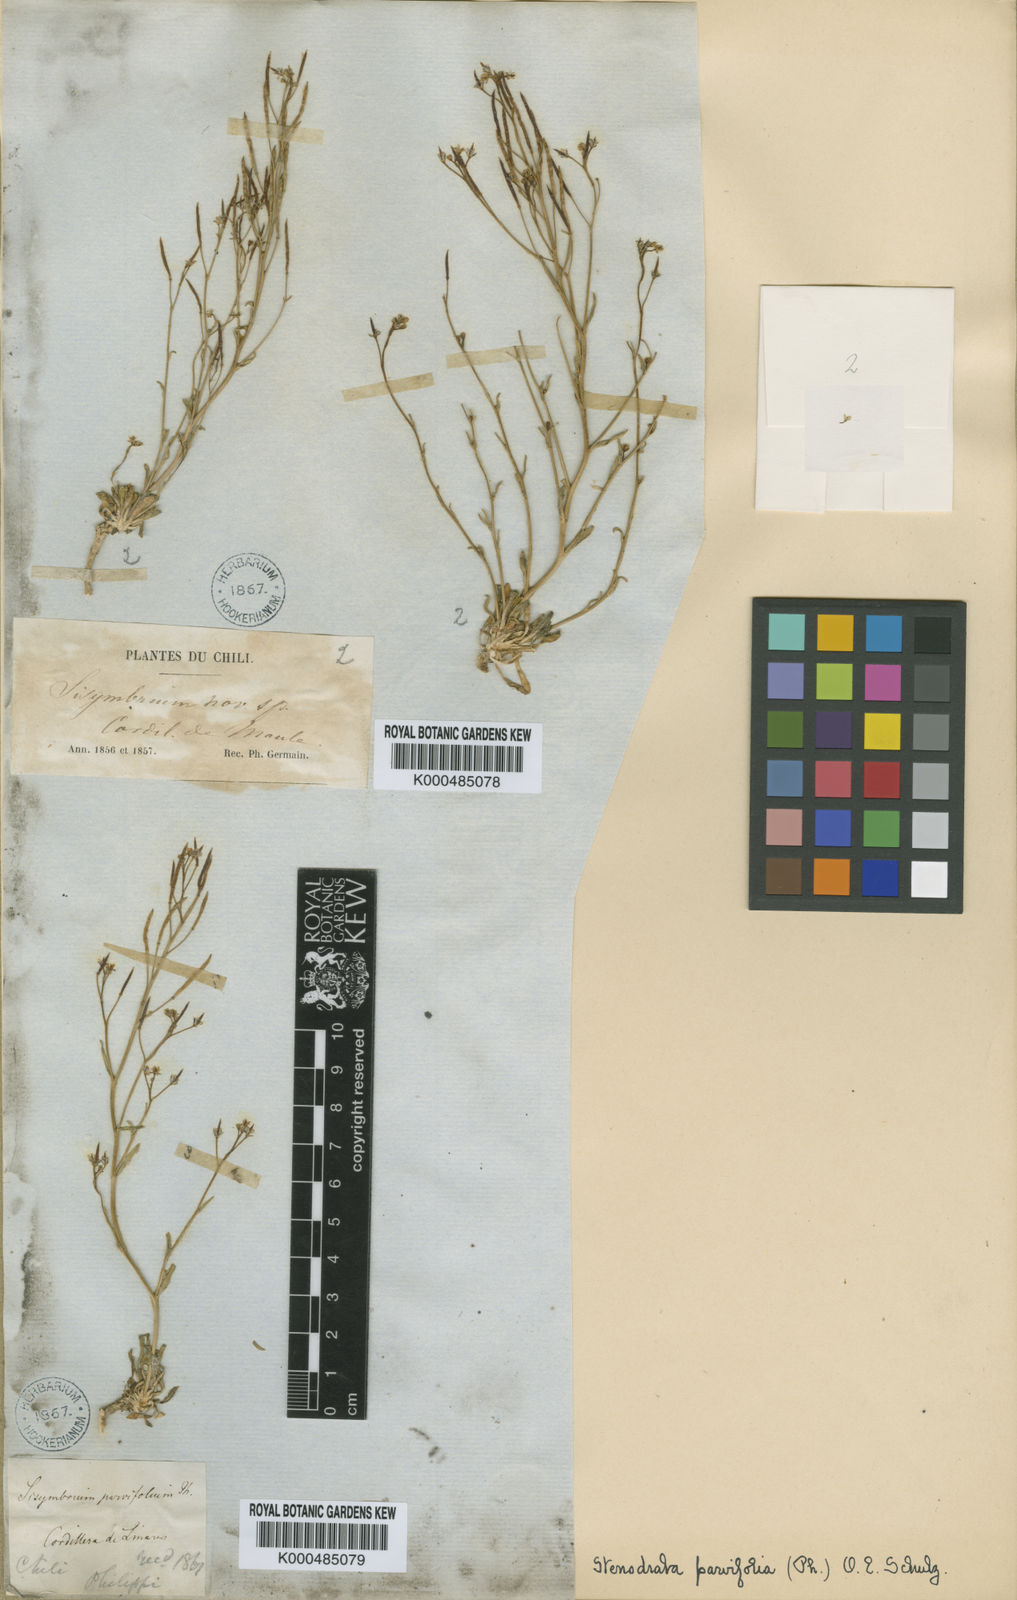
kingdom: Plantae
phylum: Tracheophyta
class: Magnoliopsida
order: Brassicales
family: Brassicaceae
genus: Stenodraba
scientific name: Stenodraba parvifolia
